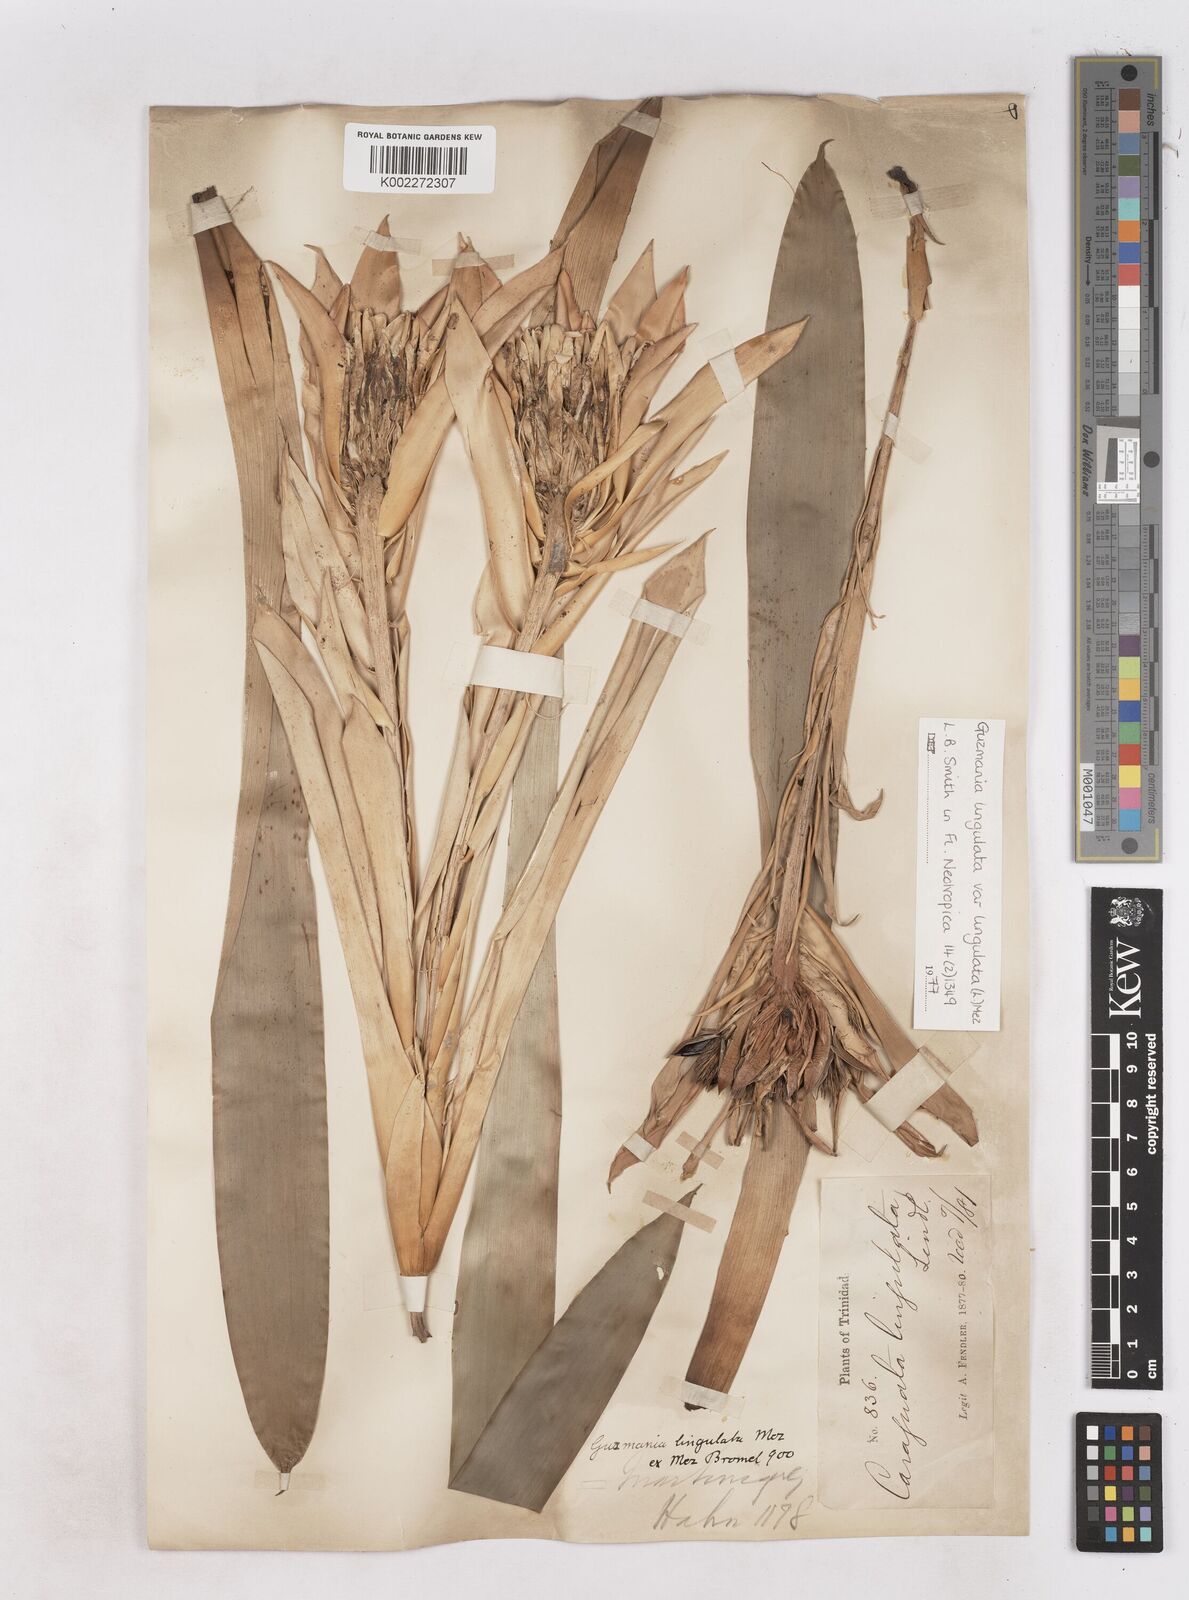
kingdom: Plantae
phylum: Tracheophyta
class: Liliopsida
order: Poales
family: Bromeliaceae
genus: Guzmania
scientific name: Guzmania lingulata
